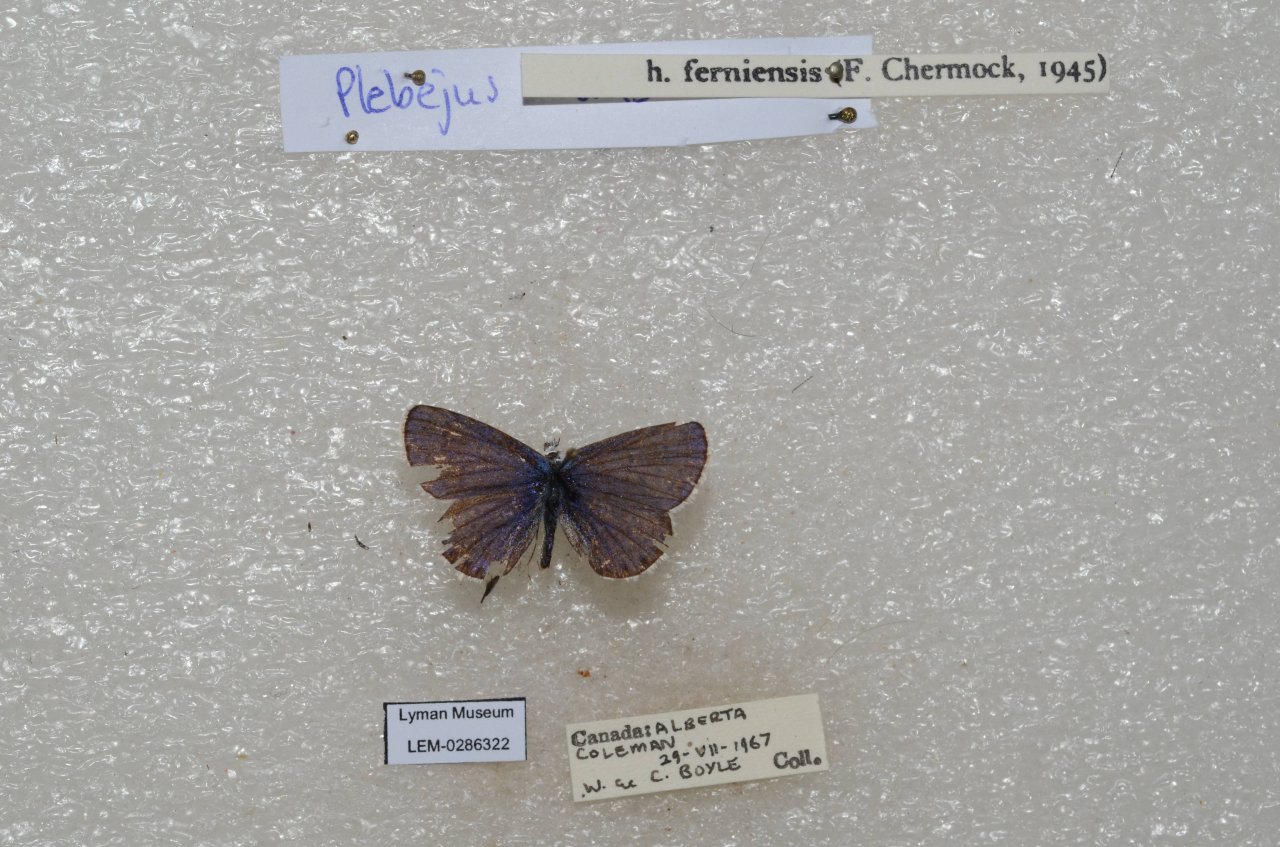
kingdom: Animalia
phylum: Arthropoda
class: Insecta
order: Lepidoptera
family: Lycaenidae
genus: Lycaeides
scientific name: Lycaeides idas
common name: Northern Blue
